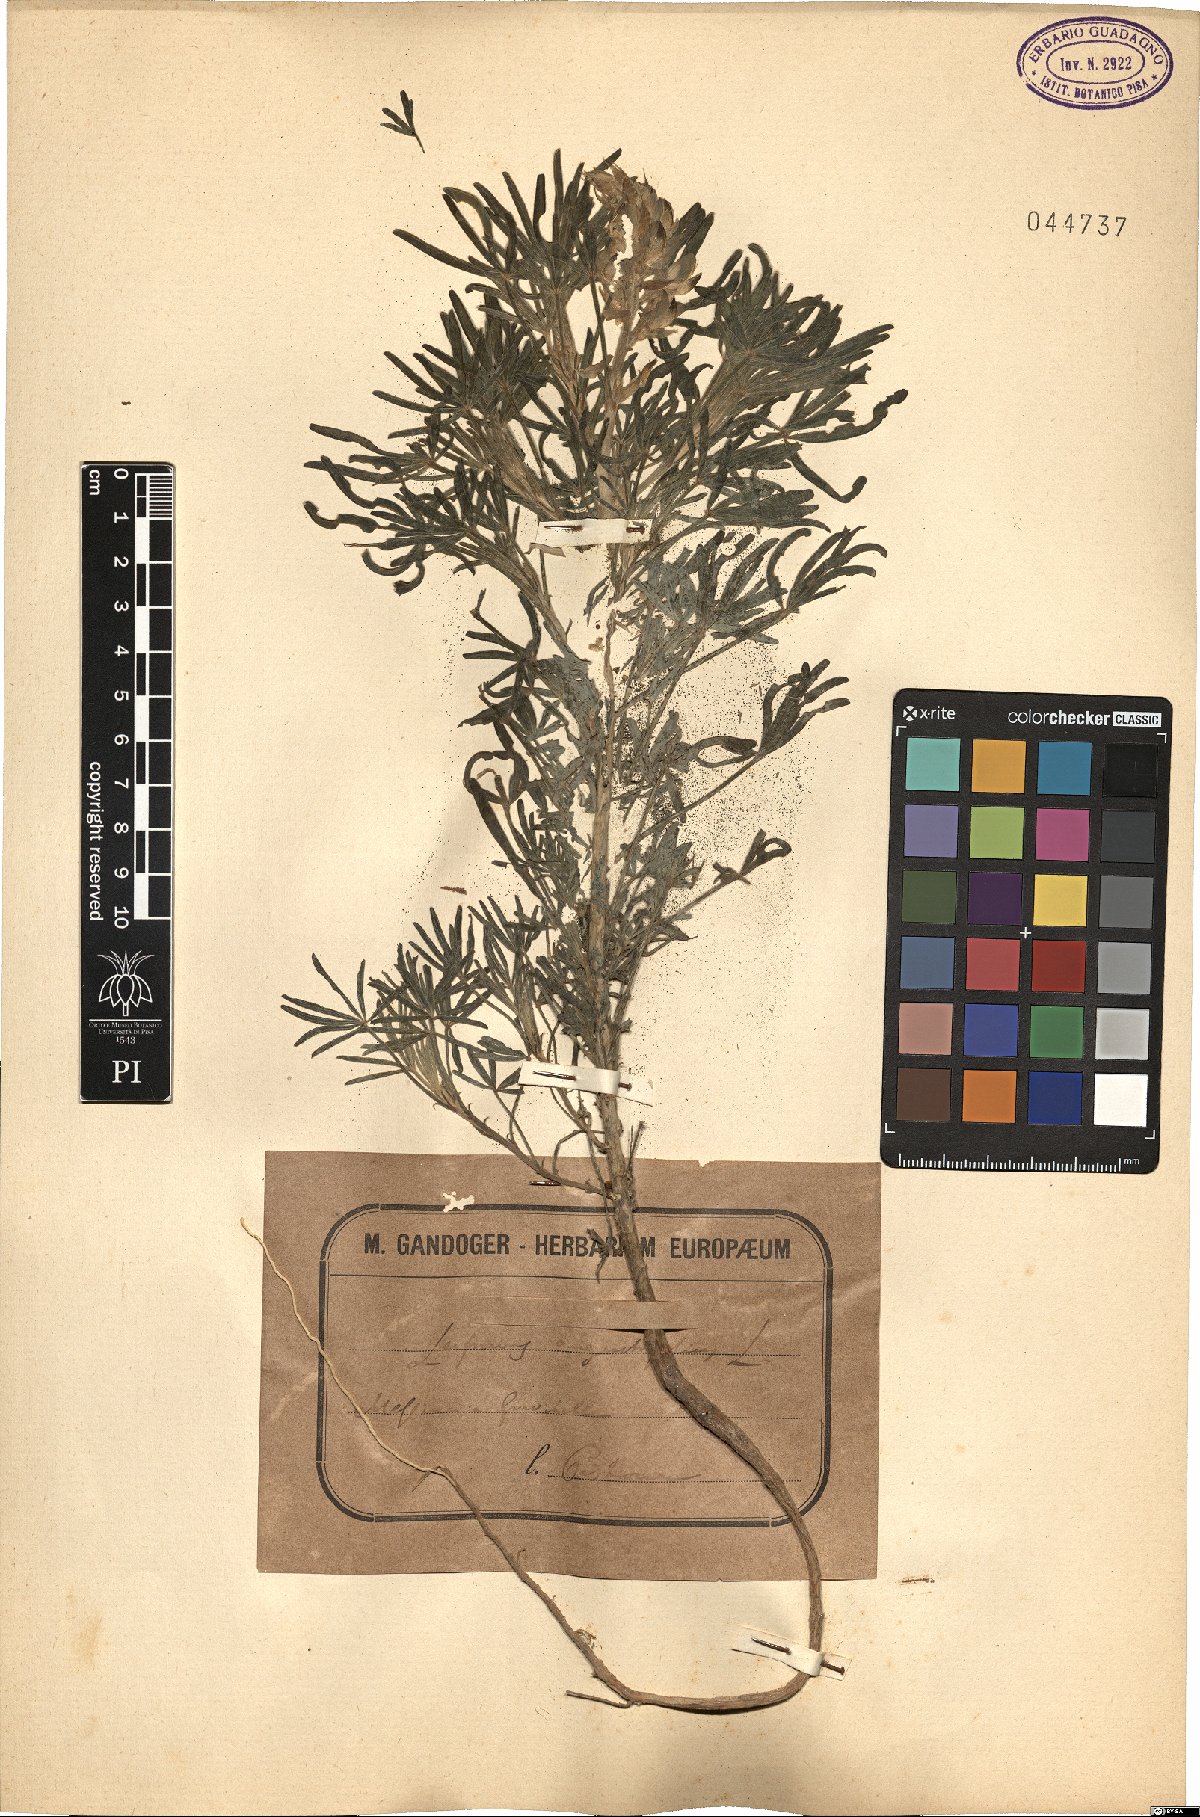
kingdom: Plantae
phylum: Tracheophyta
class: Magnoliopsida
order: Fabales
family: Fabaceae
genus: Lupinus
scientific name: Lupinus angustifolius
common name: Narrow-leaved lupin
